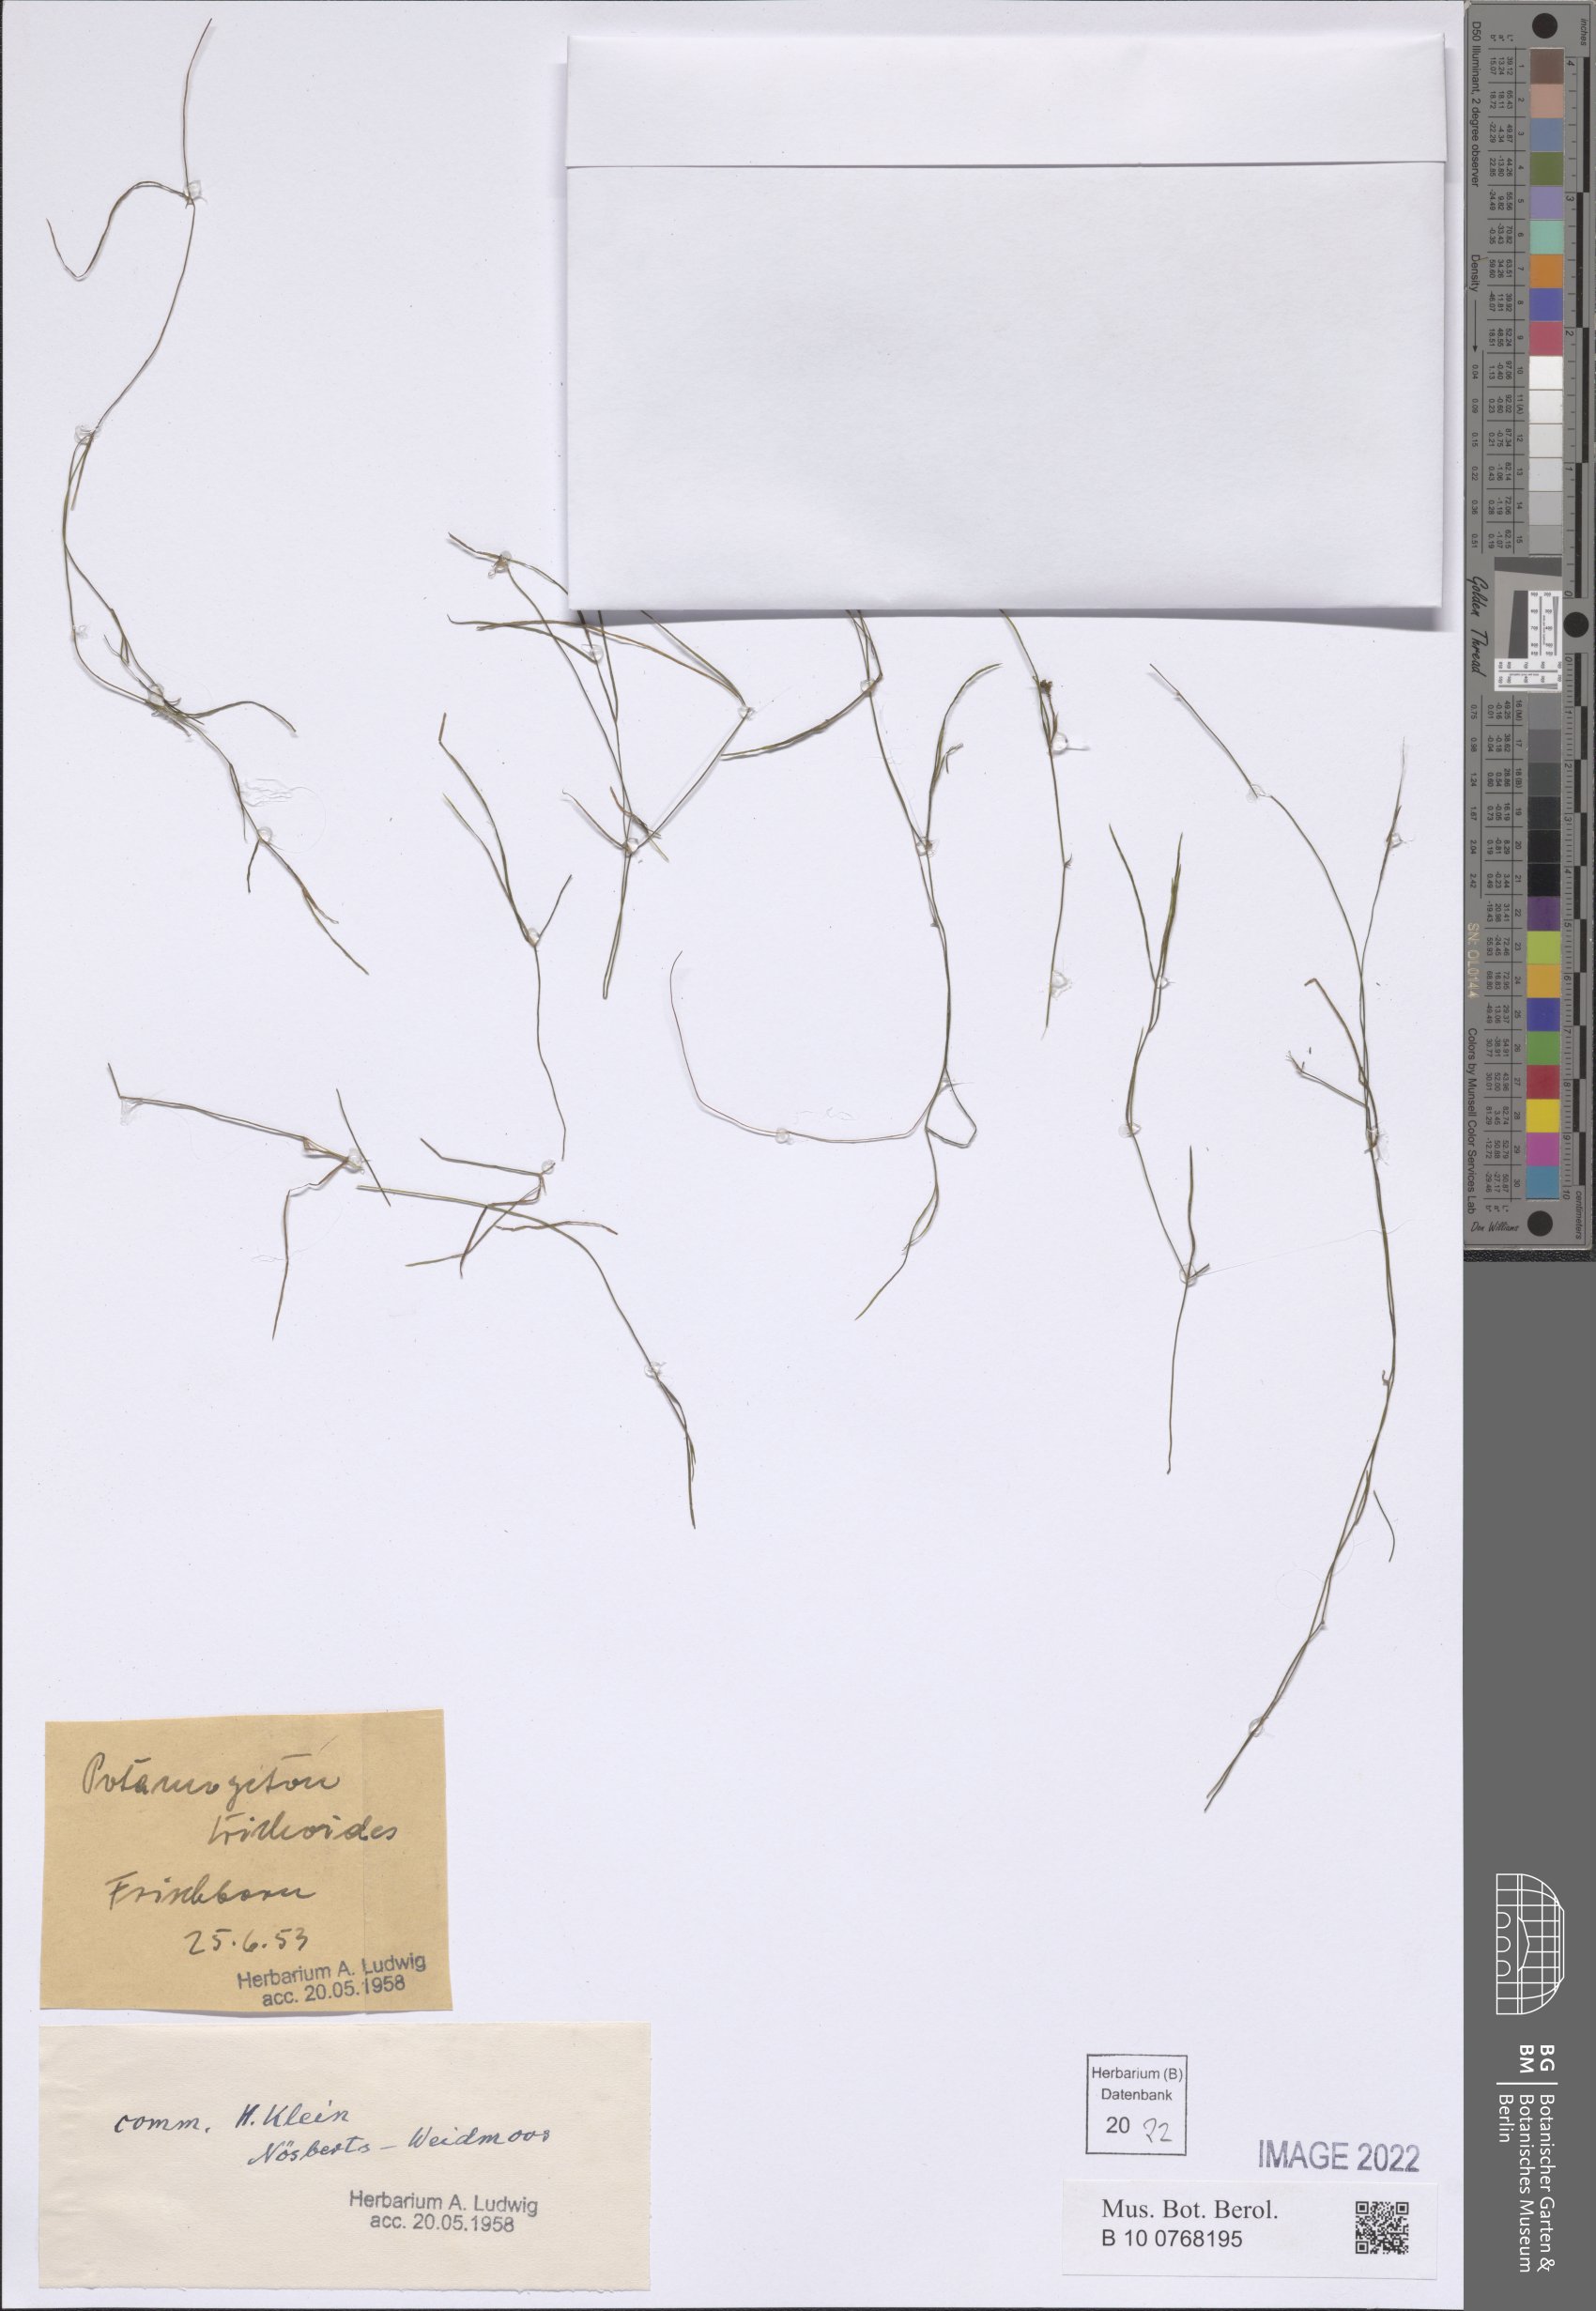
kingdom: Plantae
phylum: Tracheophyta
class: Liliopsida
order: Alismatales
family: Potamogetonaceae
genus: Potamogeton
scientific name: Potamogeton trichoides
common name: Hairlike pondweed
